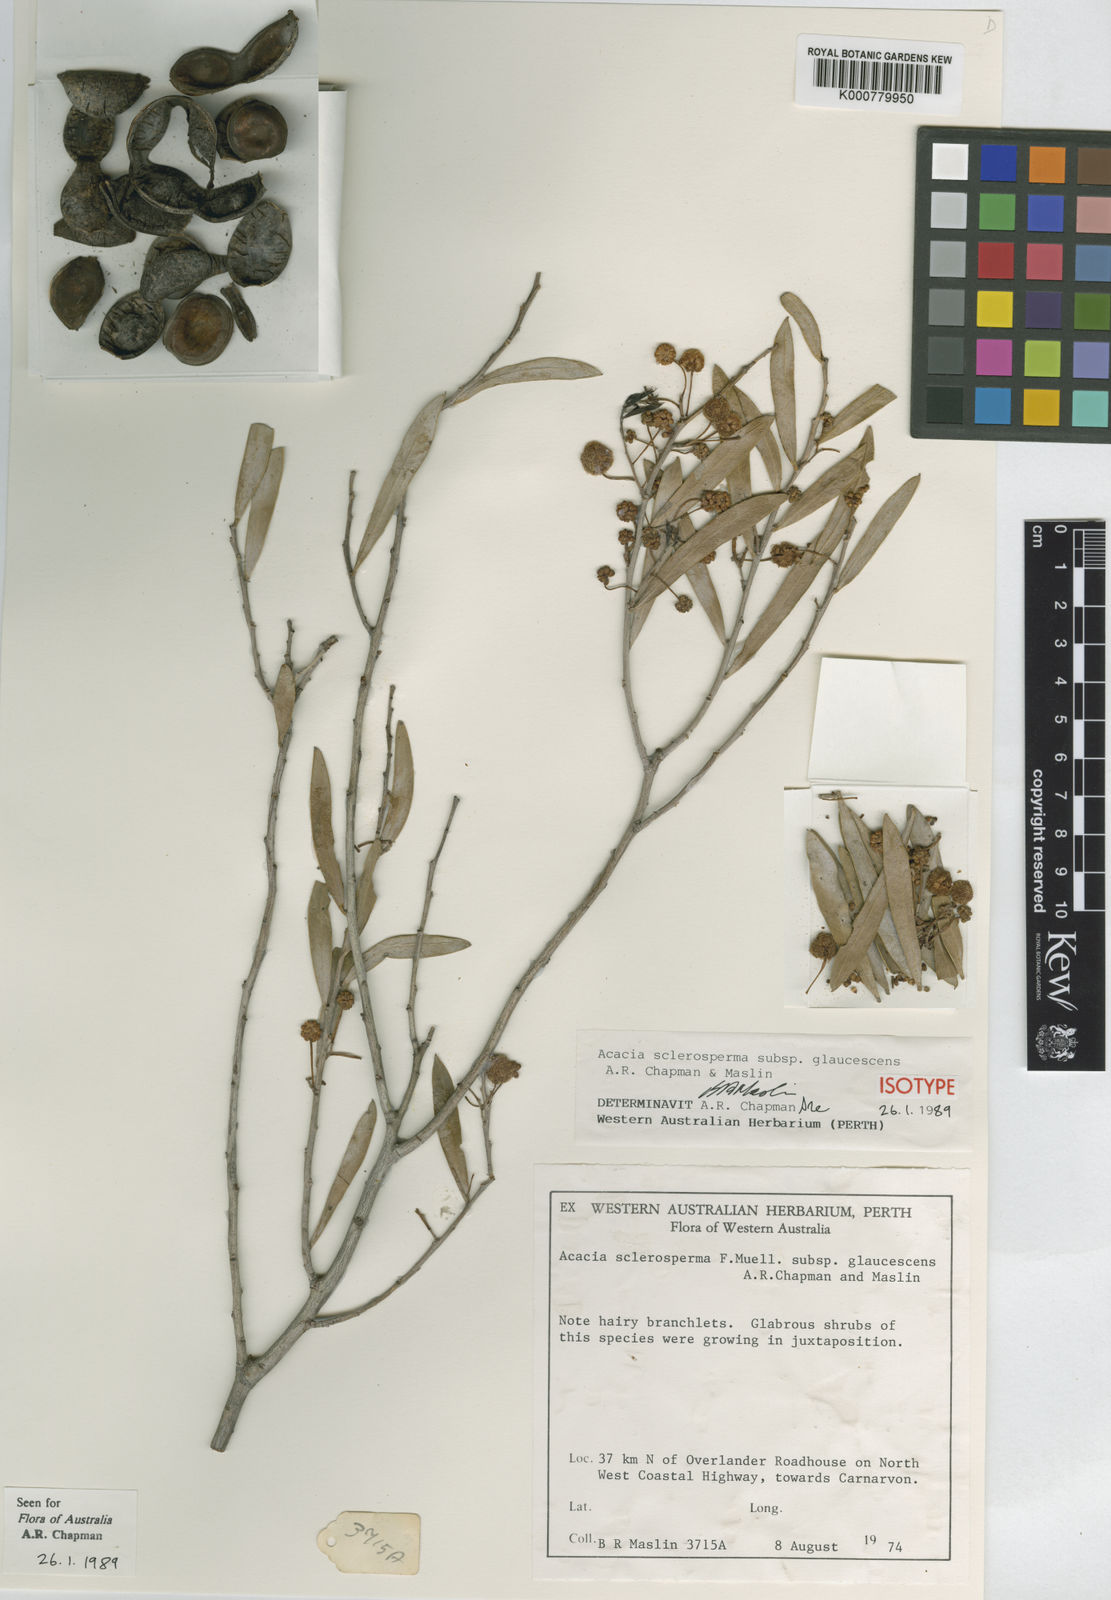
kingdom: Plantae
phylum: Tracheophyta
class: Magnoliopsida
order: Fabales
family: Fabaceae
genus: Acacia
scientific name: Acacia sclerosperma
